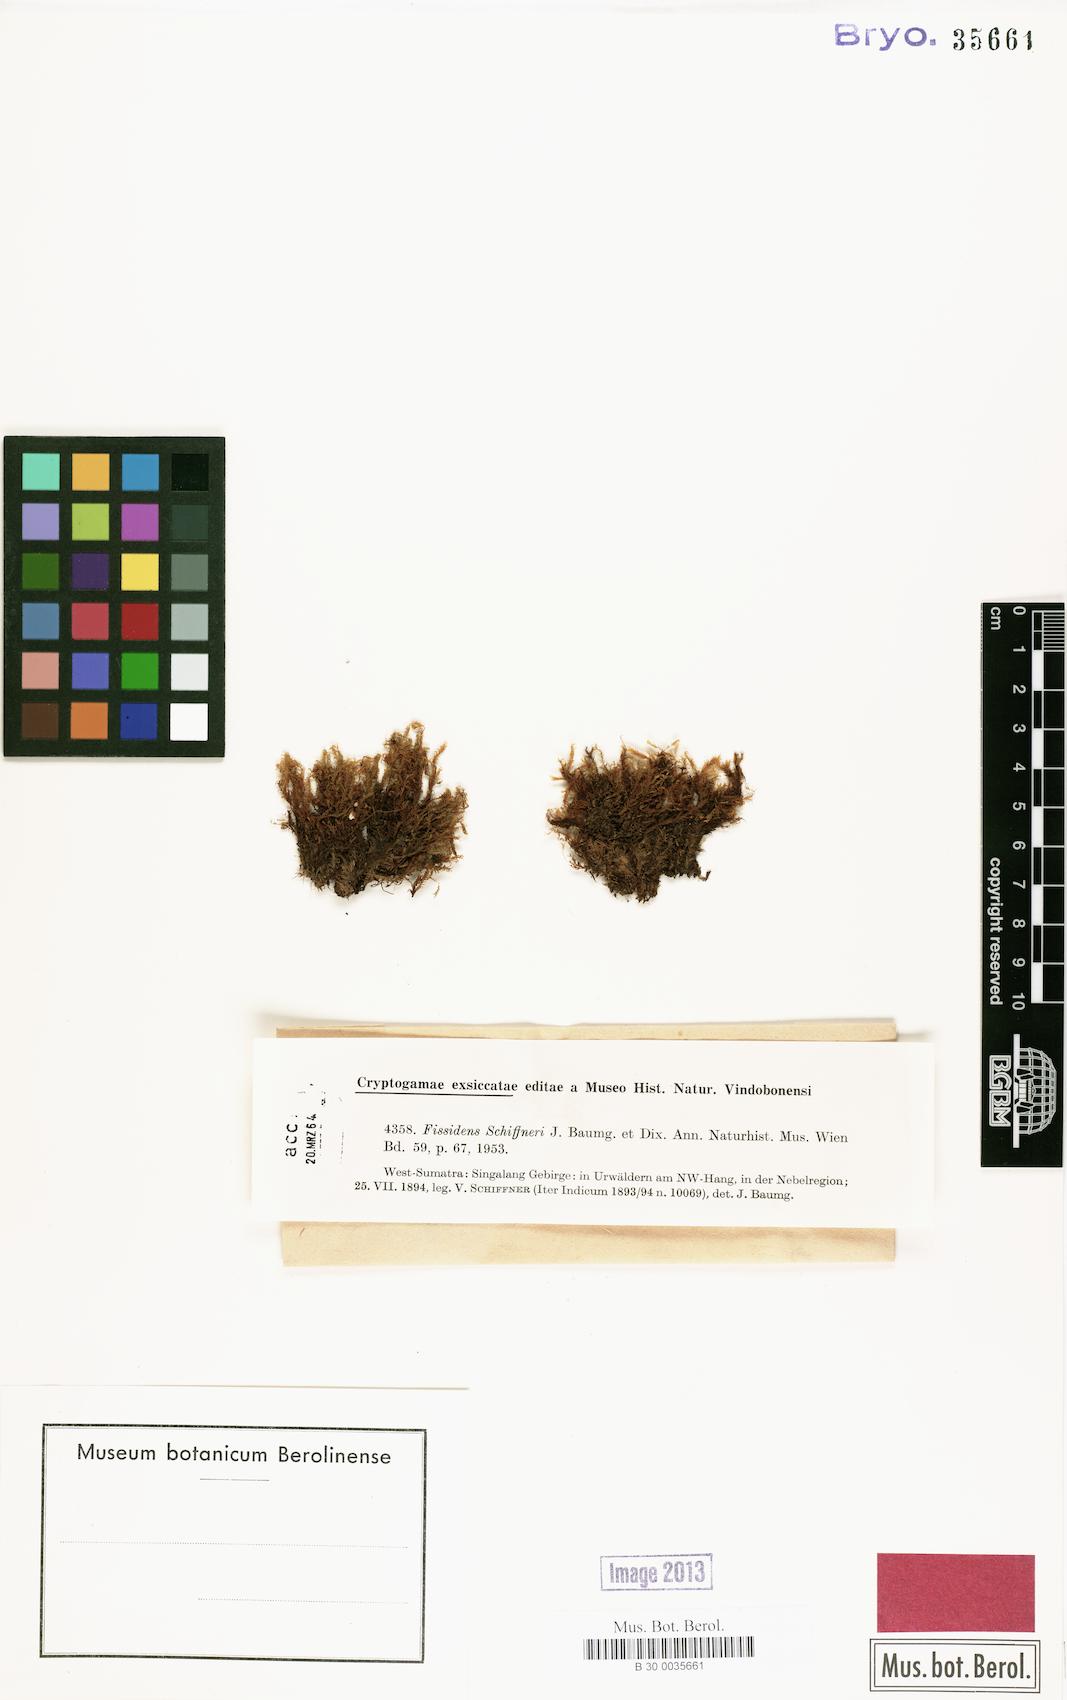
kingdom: Plantae
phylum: Bryophyta
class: Bryopsida
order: Dicranales
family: Fissidentaceae
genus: Fissidens
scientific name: Fissidens anomalus
